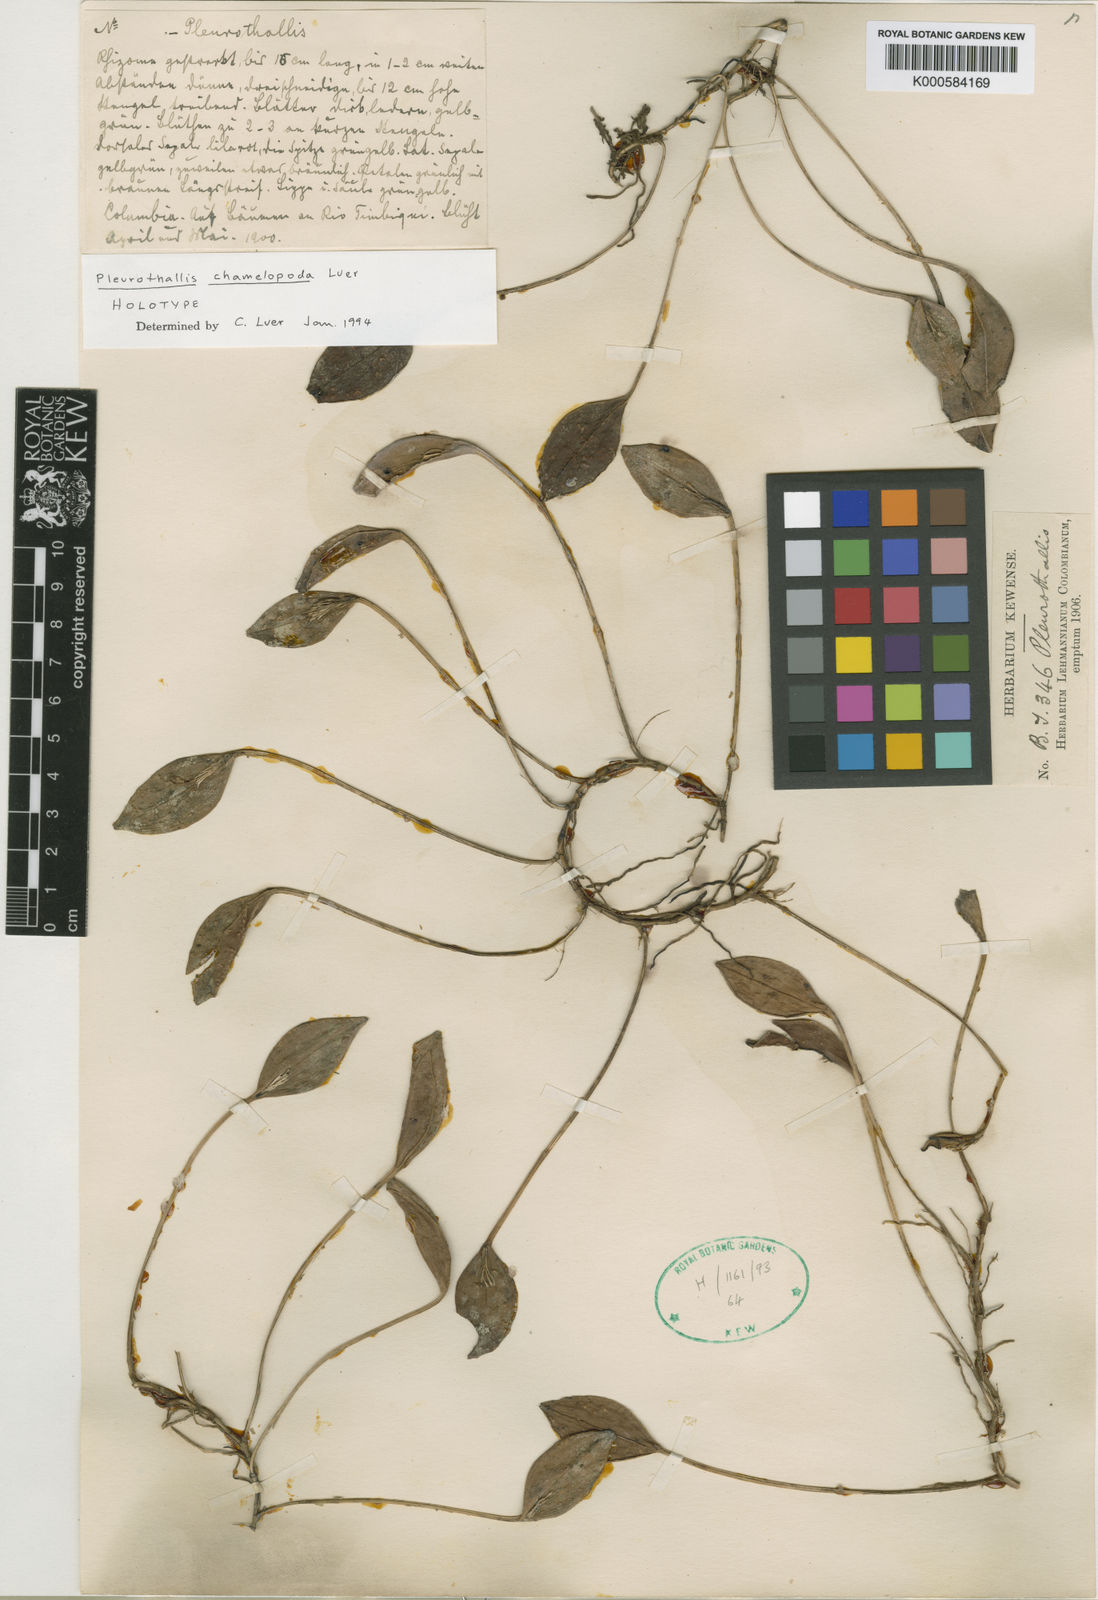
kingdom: Plantae
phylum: Tracheophyta
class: Liliopsida
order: Asparagales
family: Orchidaceae
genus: Acianthera
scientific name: Acianthera chamelopoda
